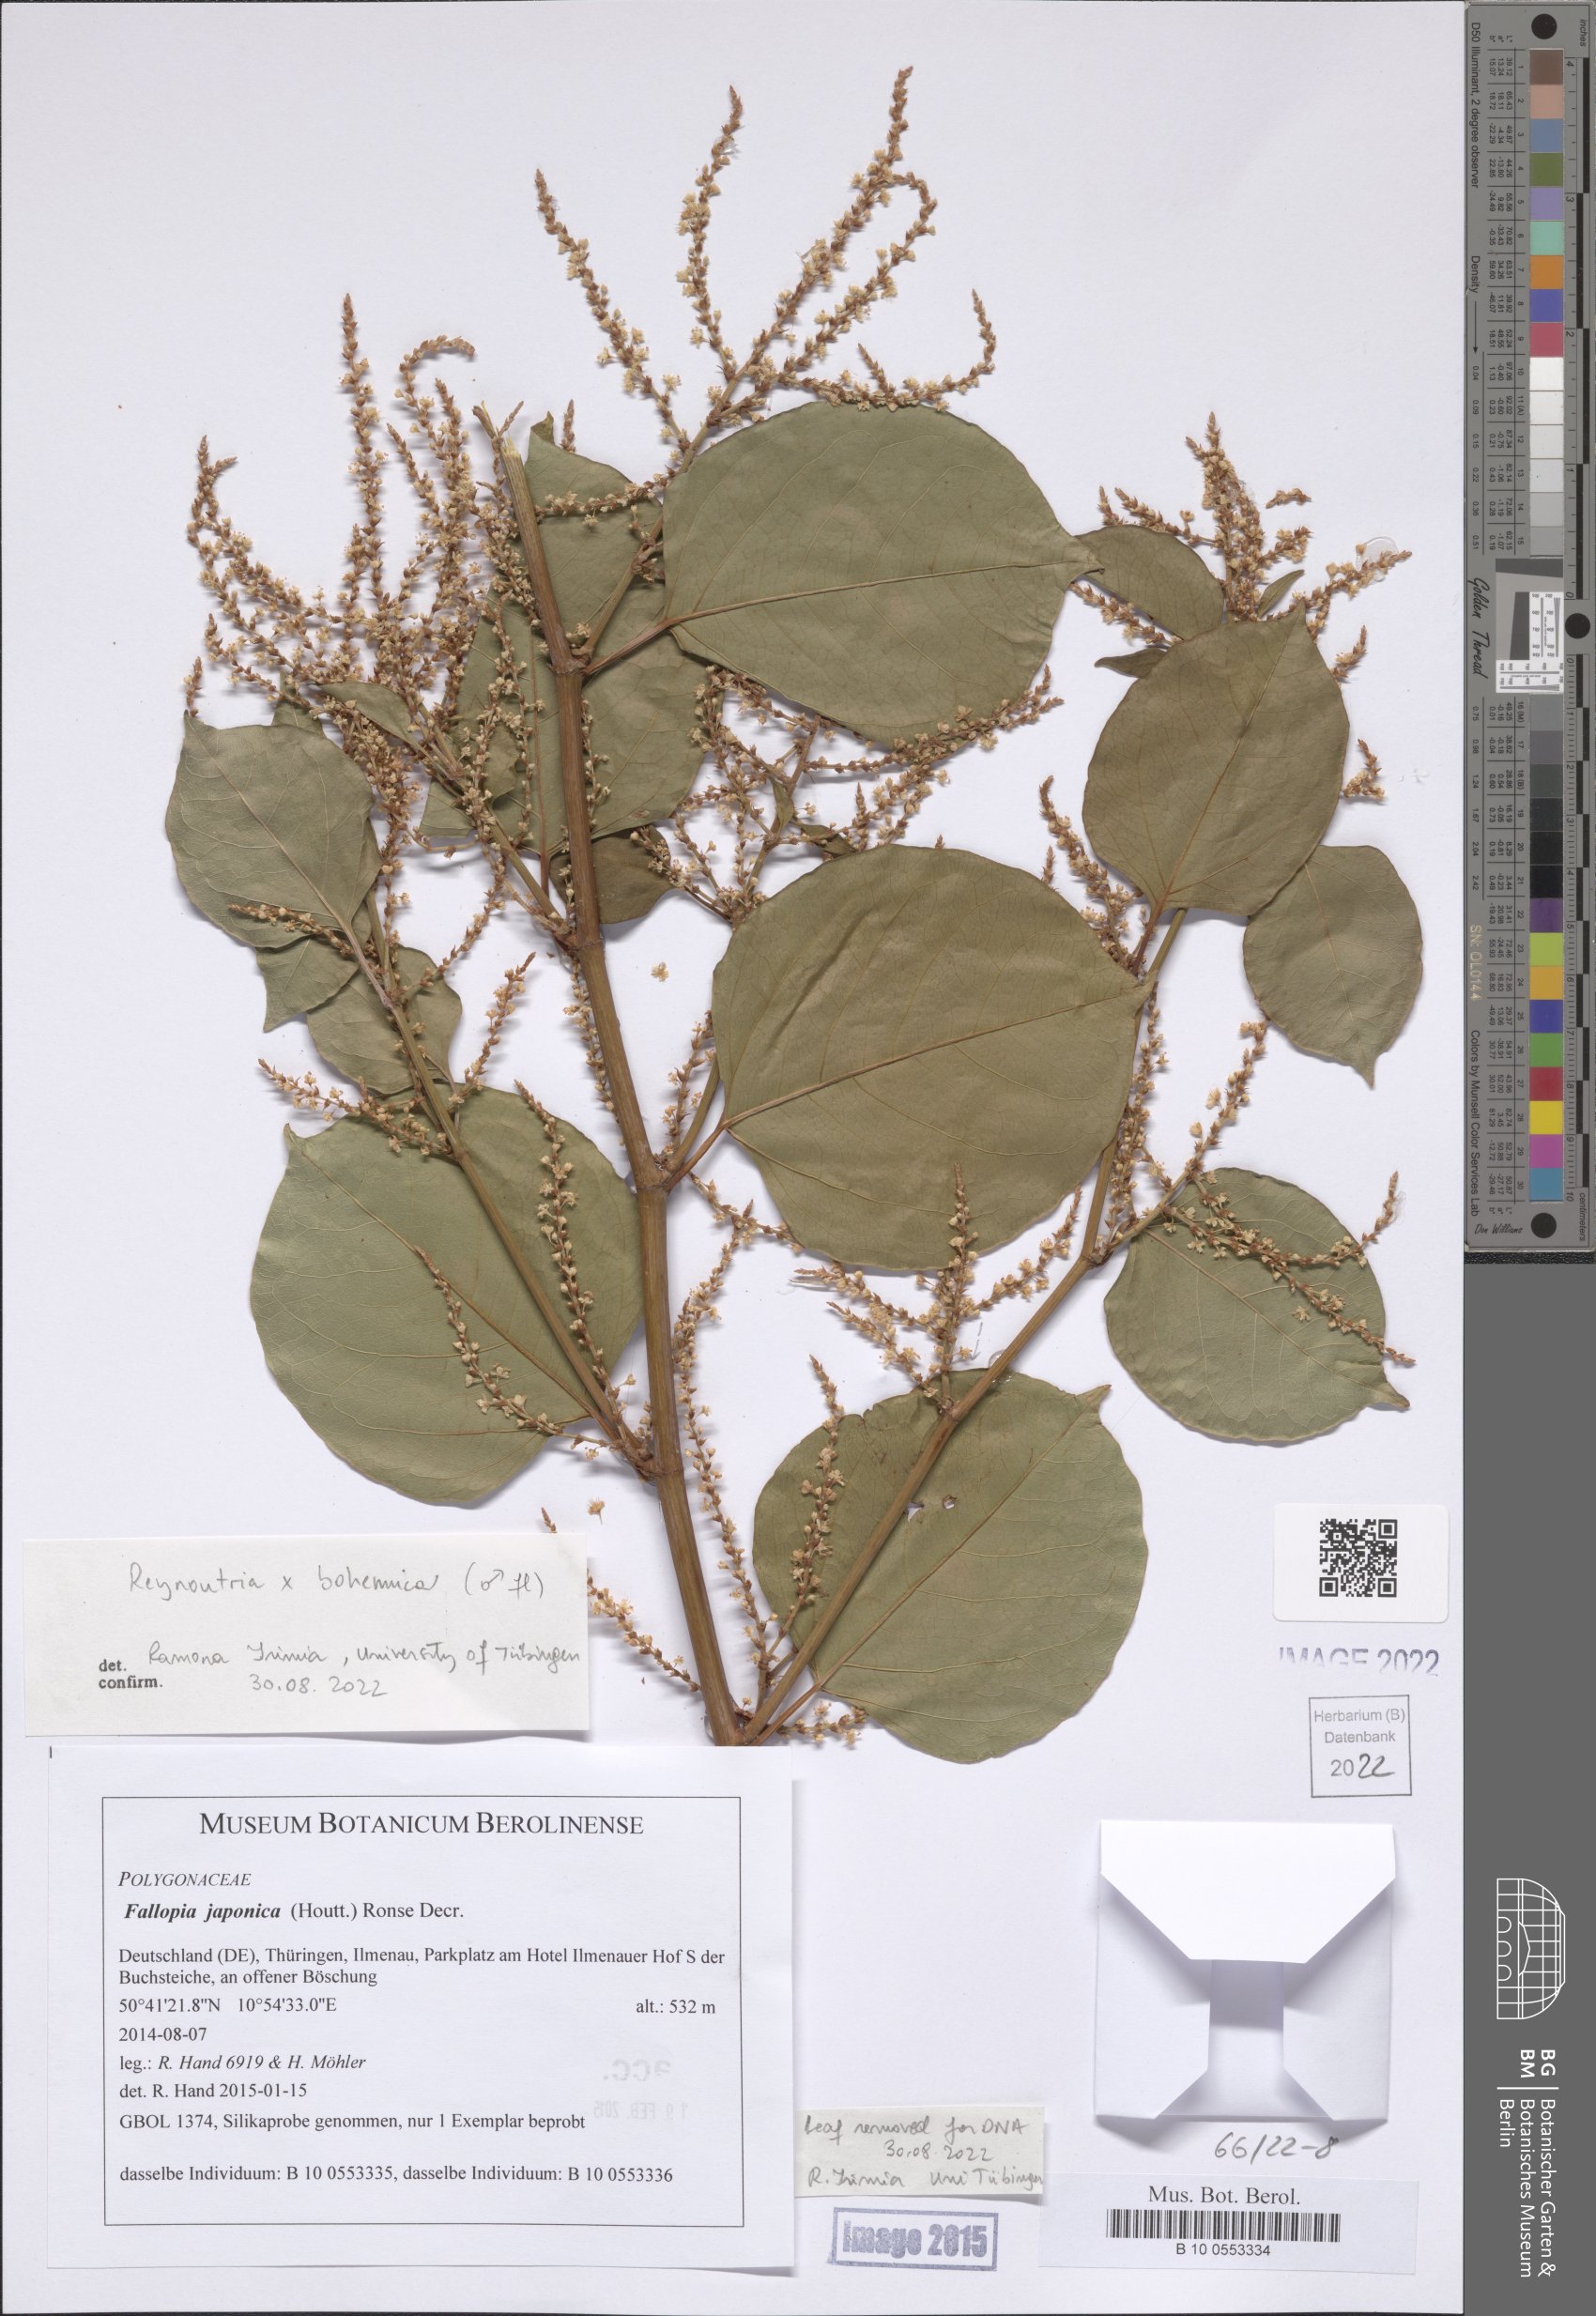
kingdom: Plantae
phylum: Tracheophyta
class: Magnoliopsida
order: Caryophyllales
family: Polygonaceae
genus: Reynoutria
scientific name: Reynoutria bohemica
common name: Bohemian knotweed
